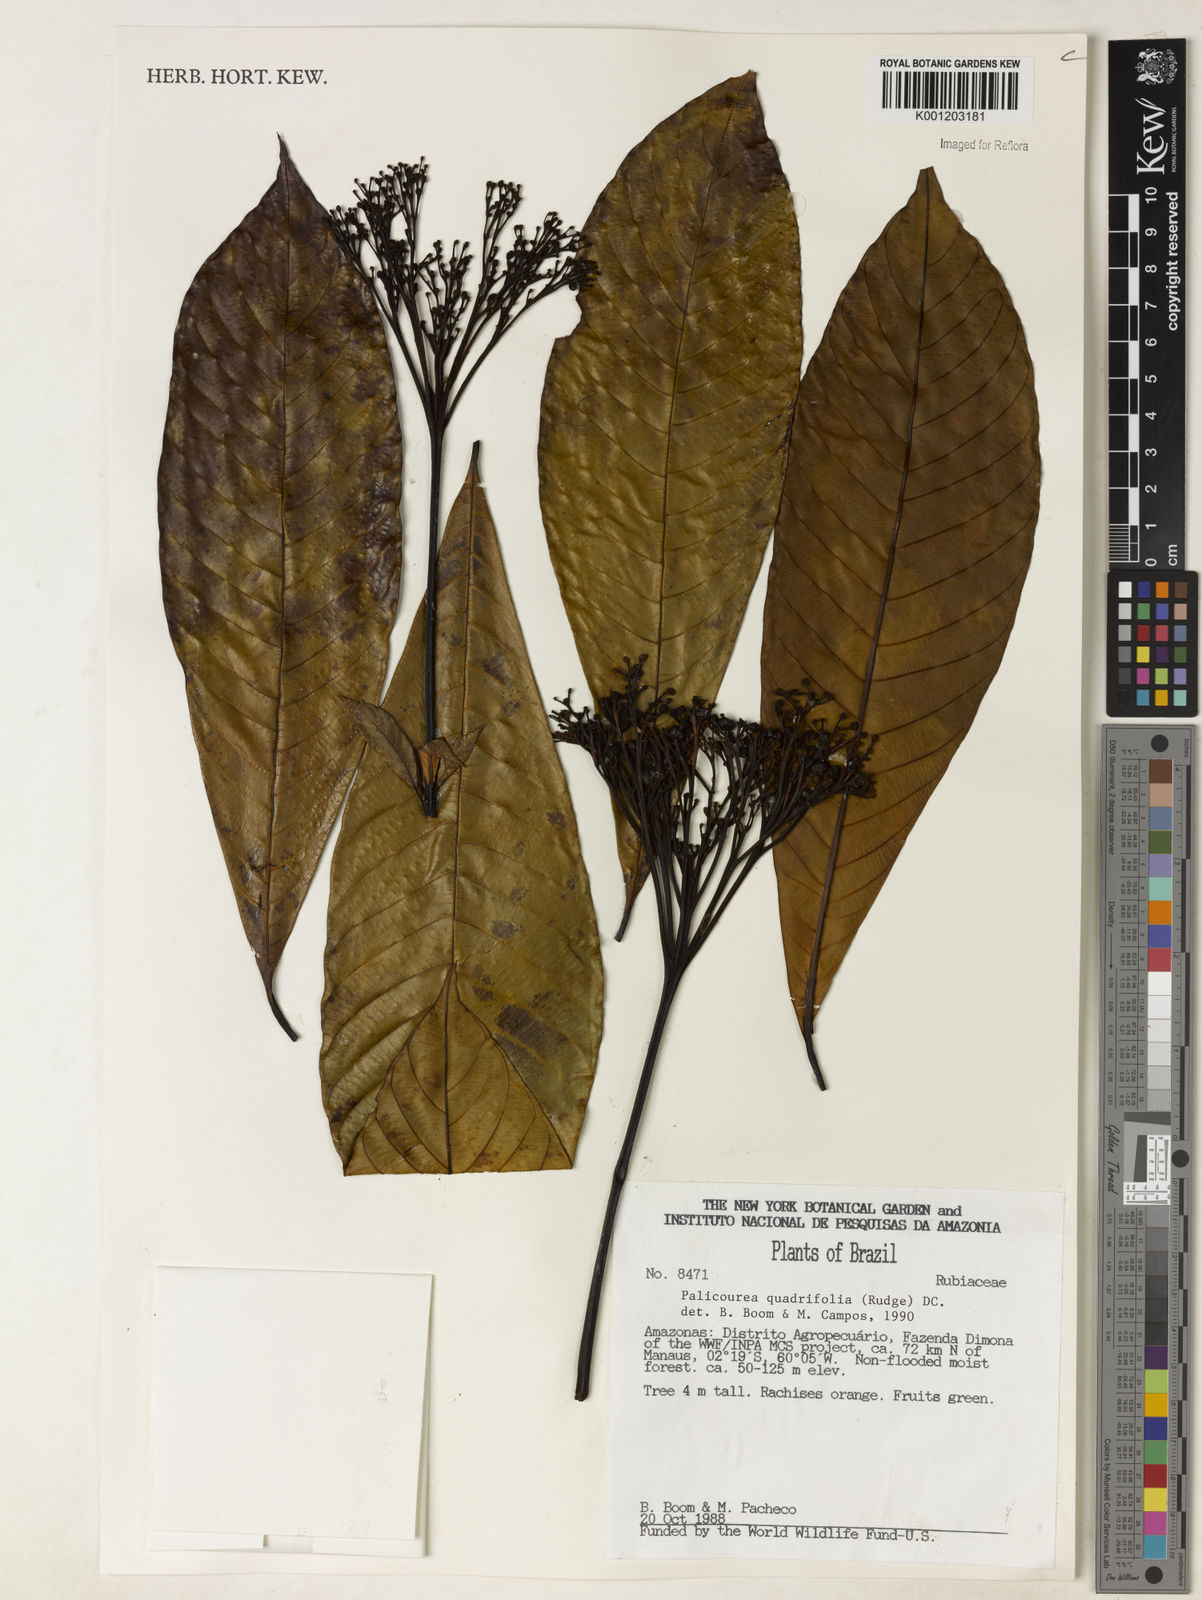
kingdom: Plantae
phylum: Tracheophyta
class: Magnoliopsida
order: Gentianales
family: Rubiaceae
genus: Palicourea
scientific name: Palicourea quadrifolia
